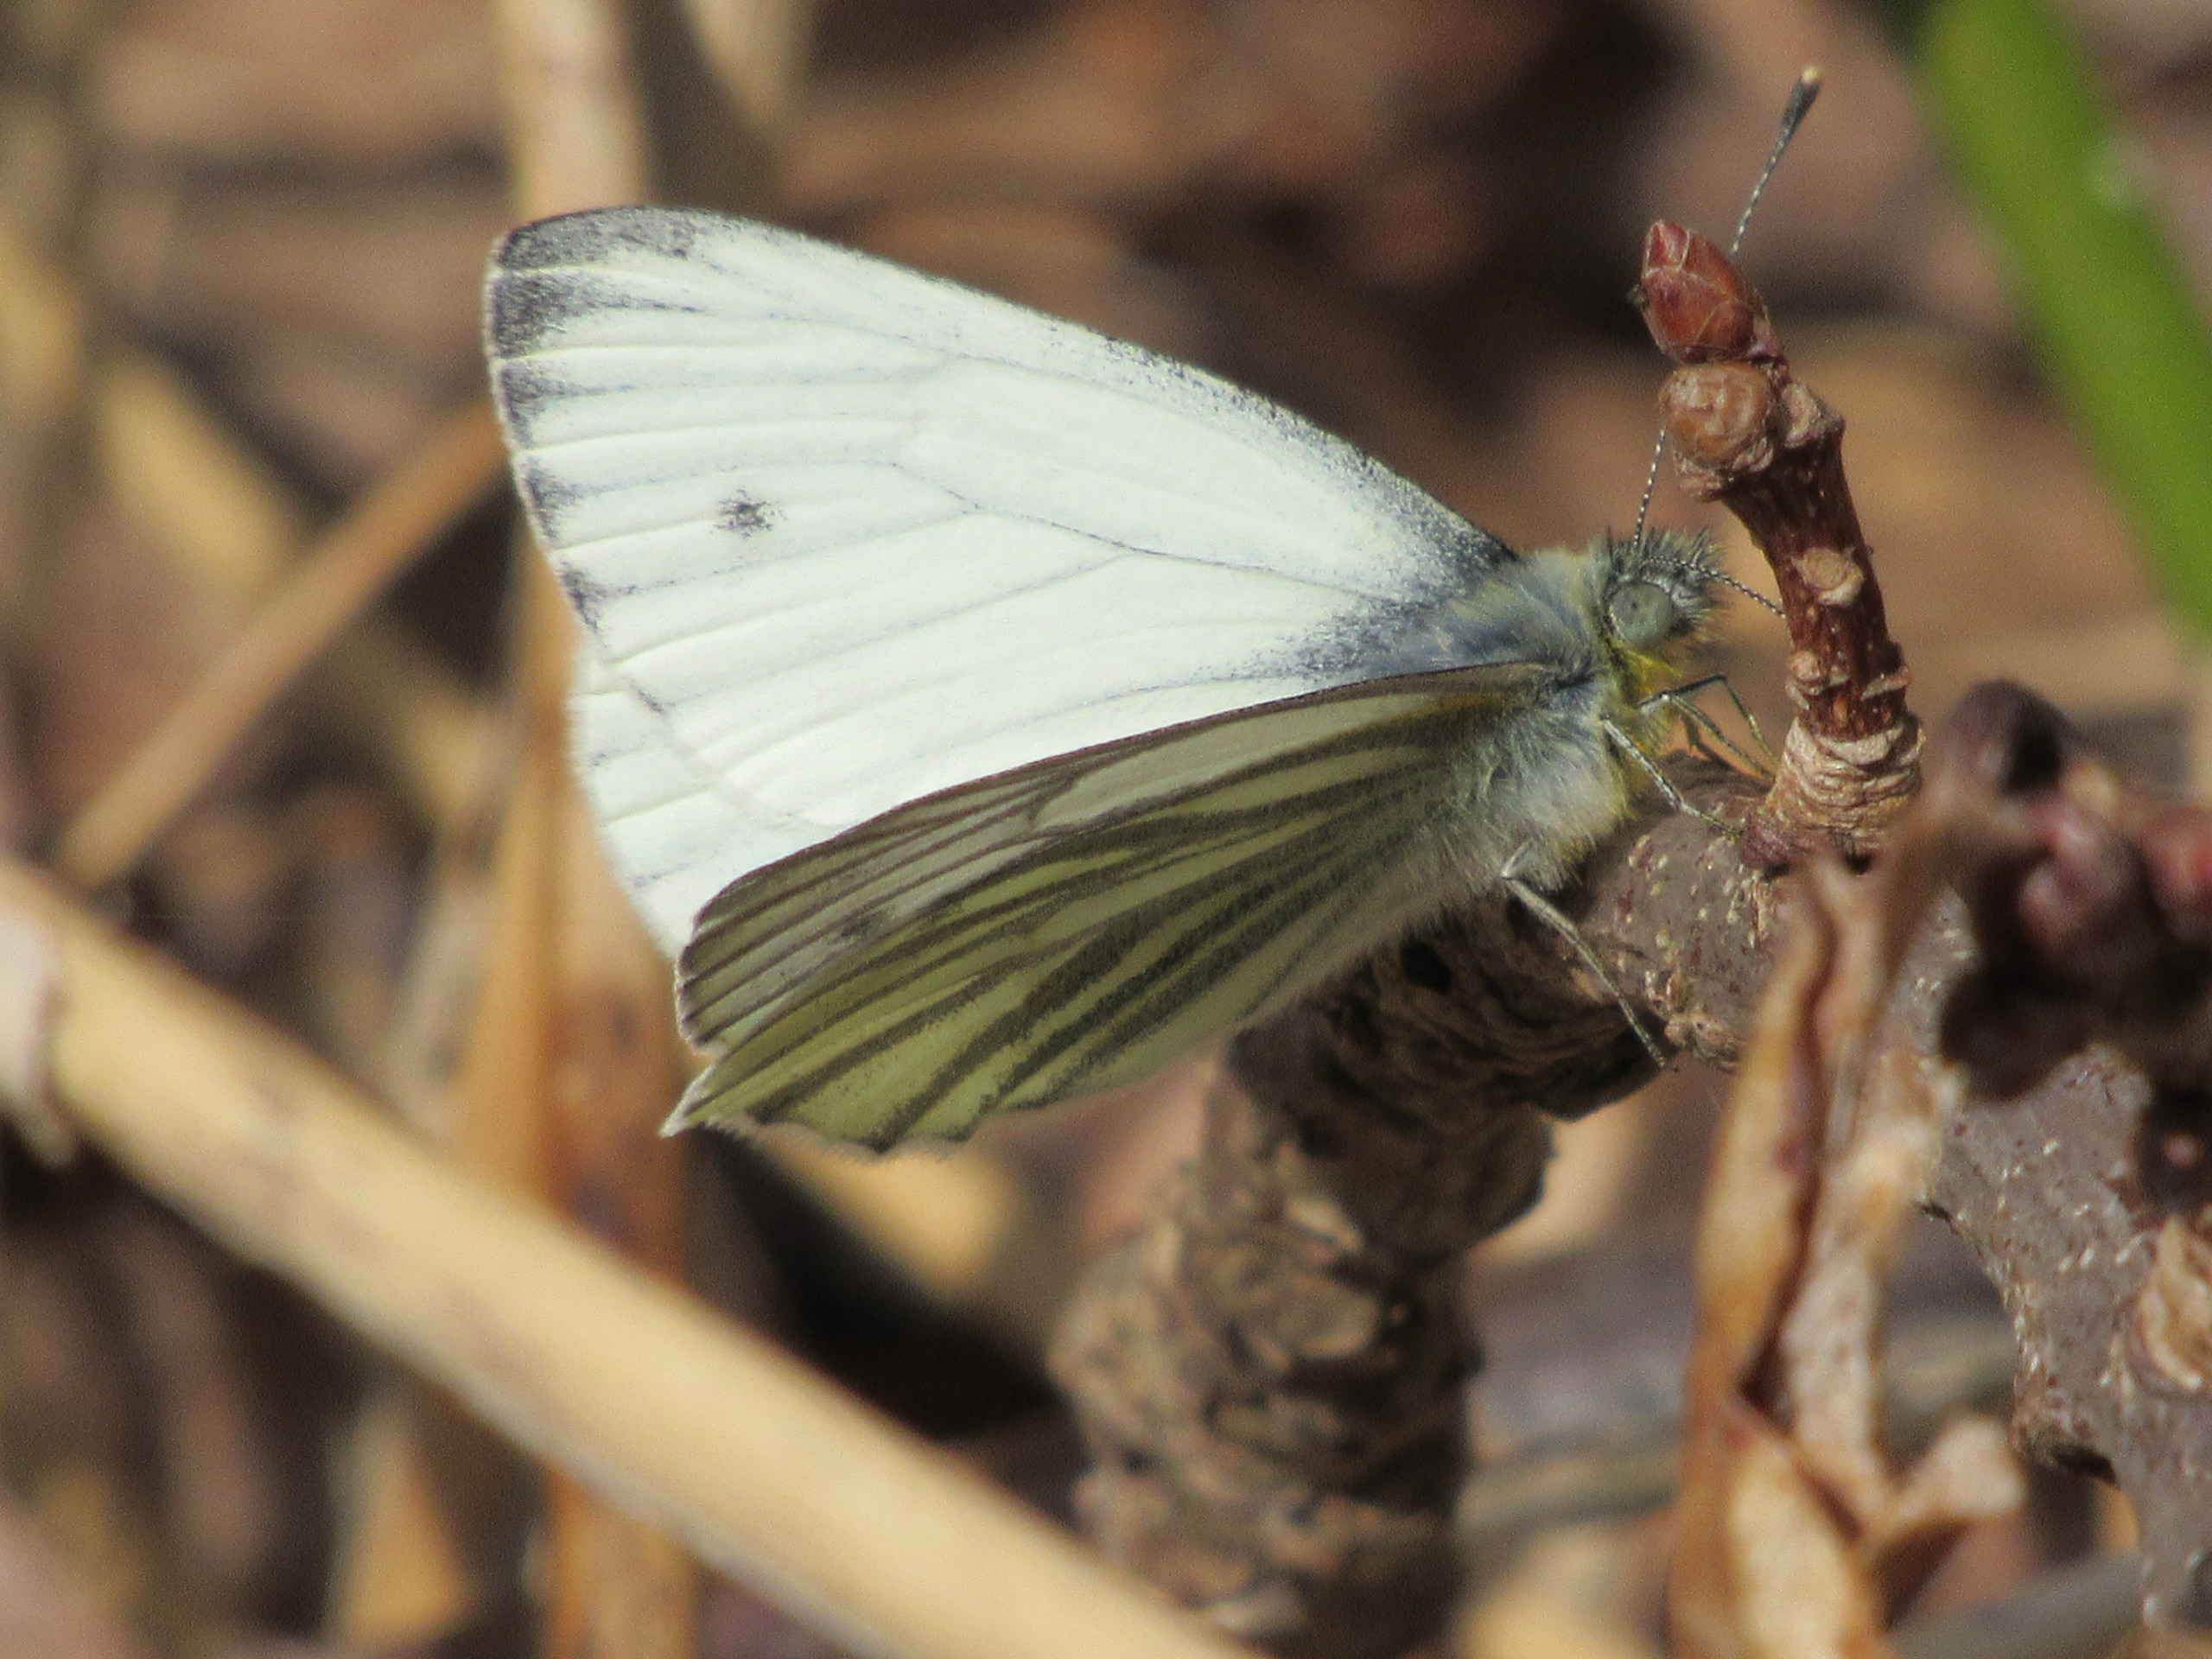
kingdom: Animalia
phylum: Arthropoda
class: Insecta
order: Lepidoptera
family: Pieridae
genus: Pieris
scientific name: Pieris napi
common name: Grønåret kålsommerfugl
